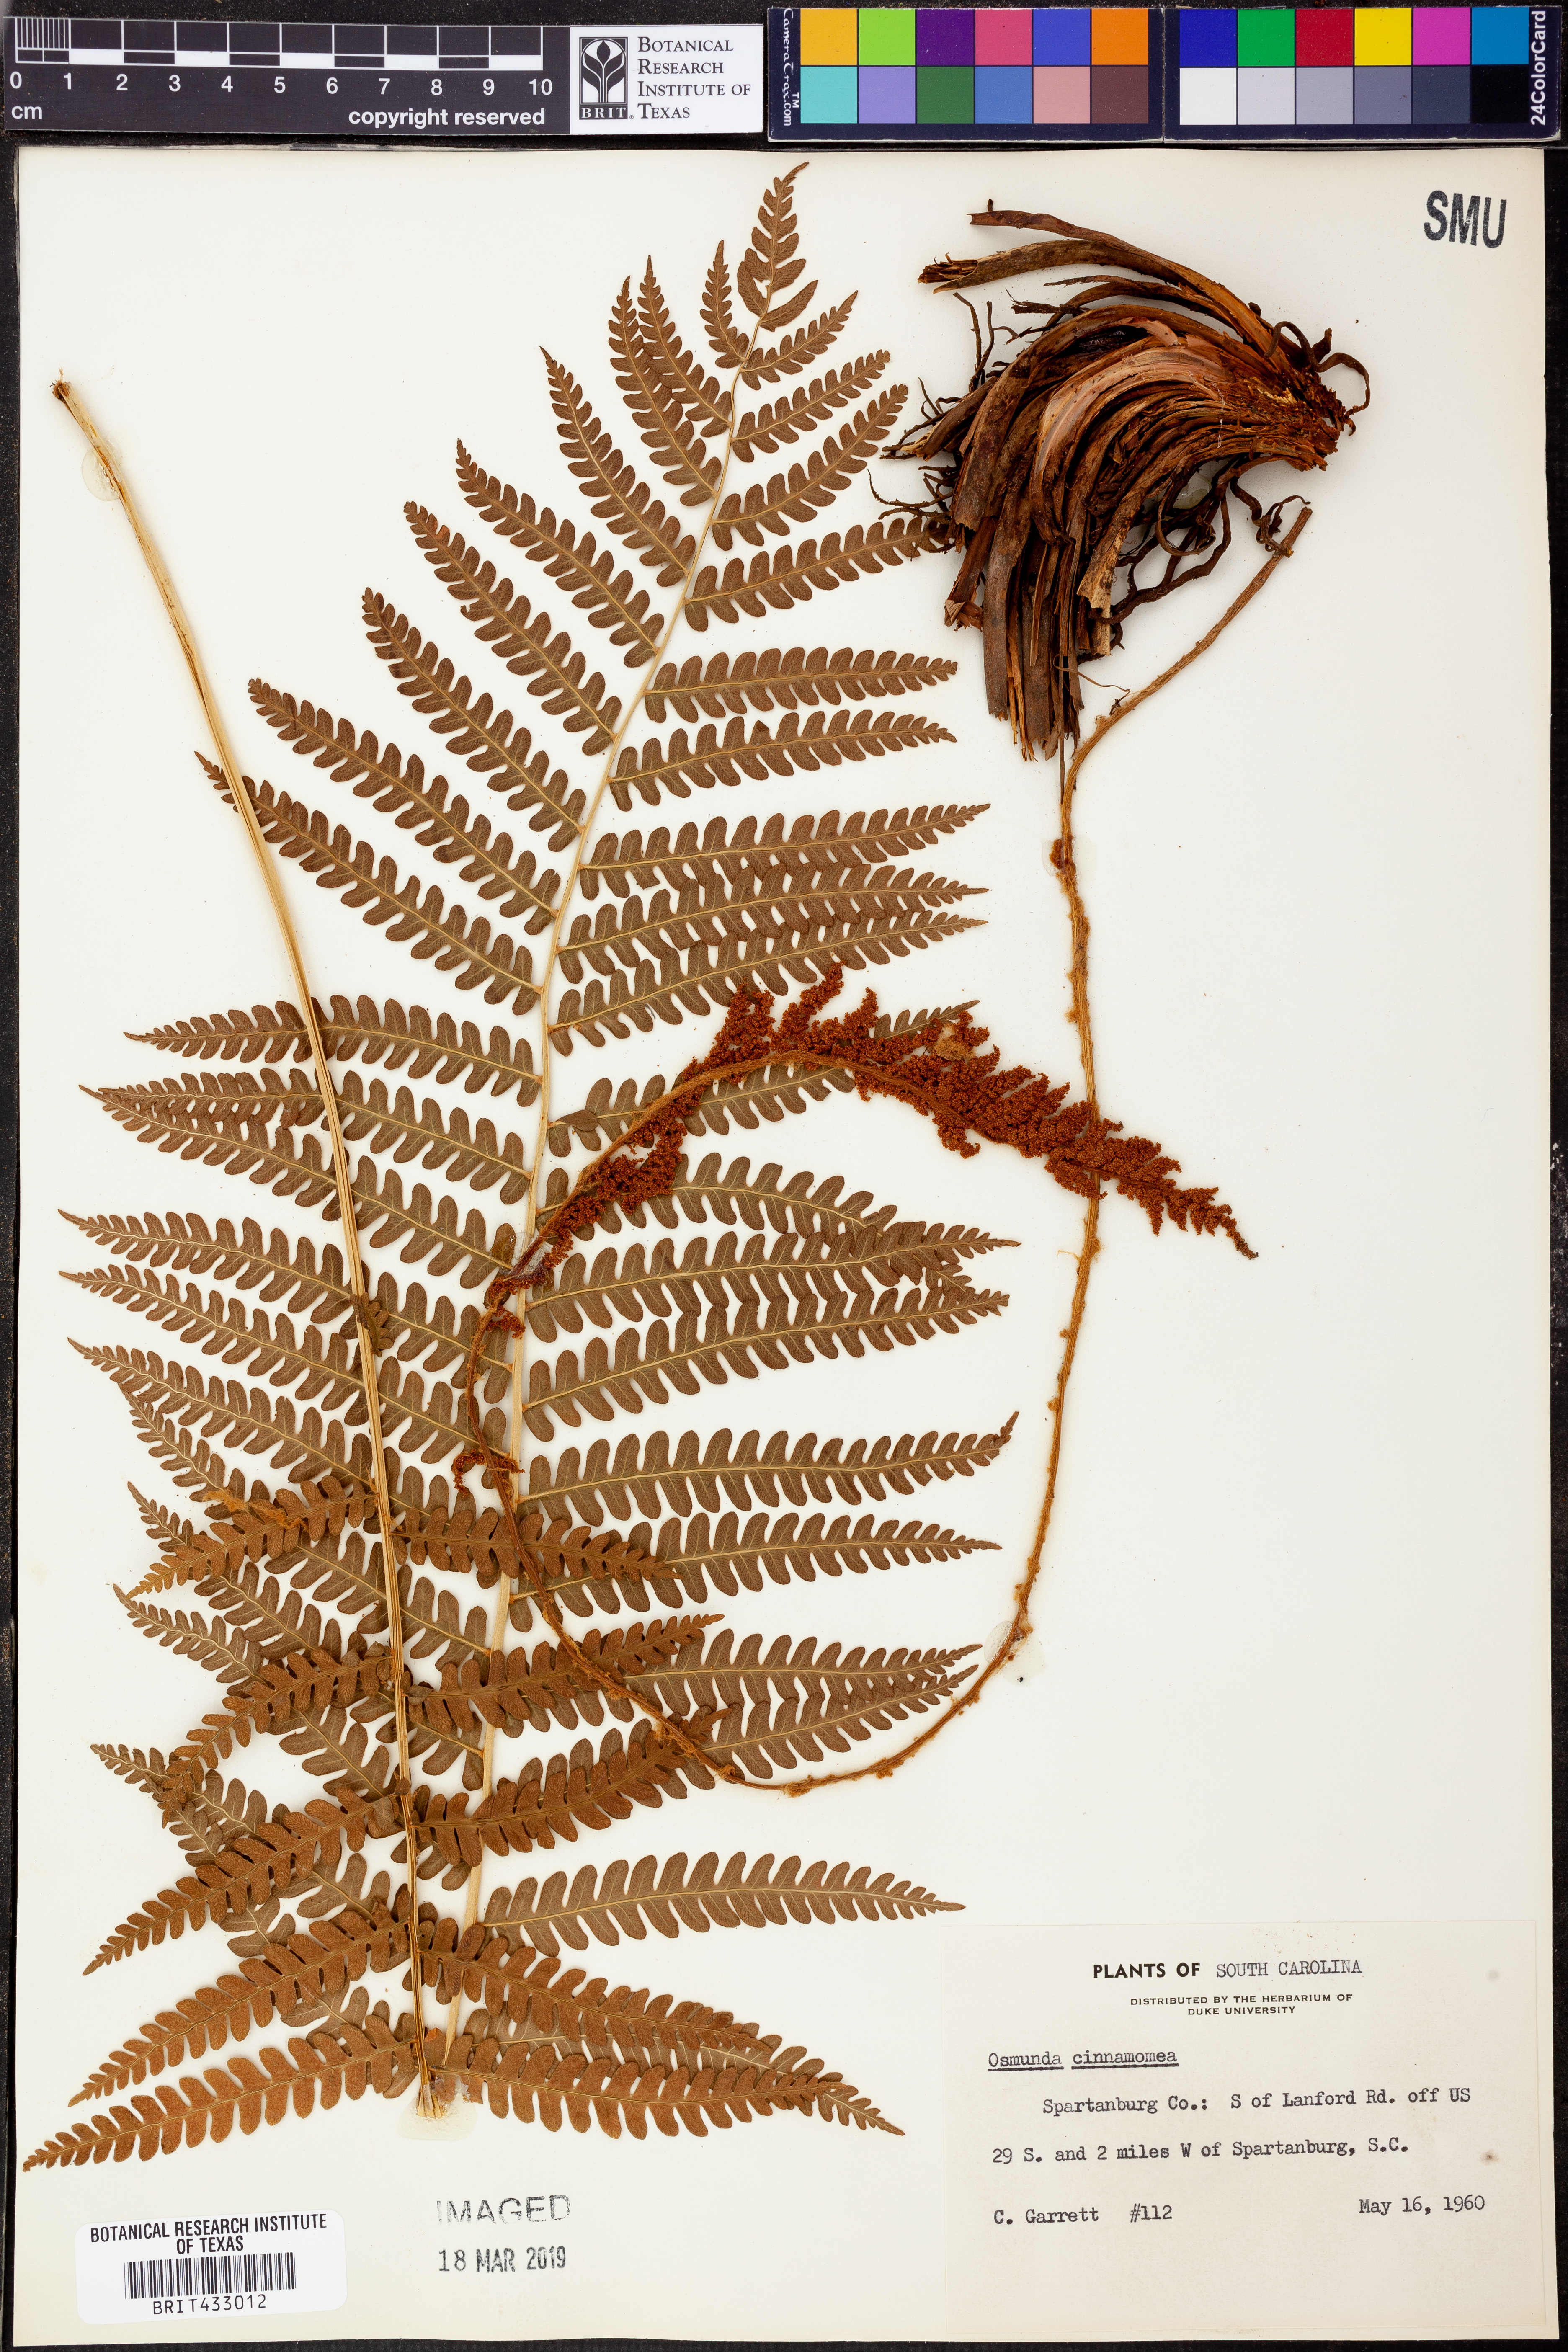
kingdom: Plantae
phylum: Tracheophyta
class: Polypodiopsida
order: Osmundales
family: Osmundaceae
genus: Osmundastrum
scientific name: Osmundastrum cinnamomeum
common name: Cinnamon fern
